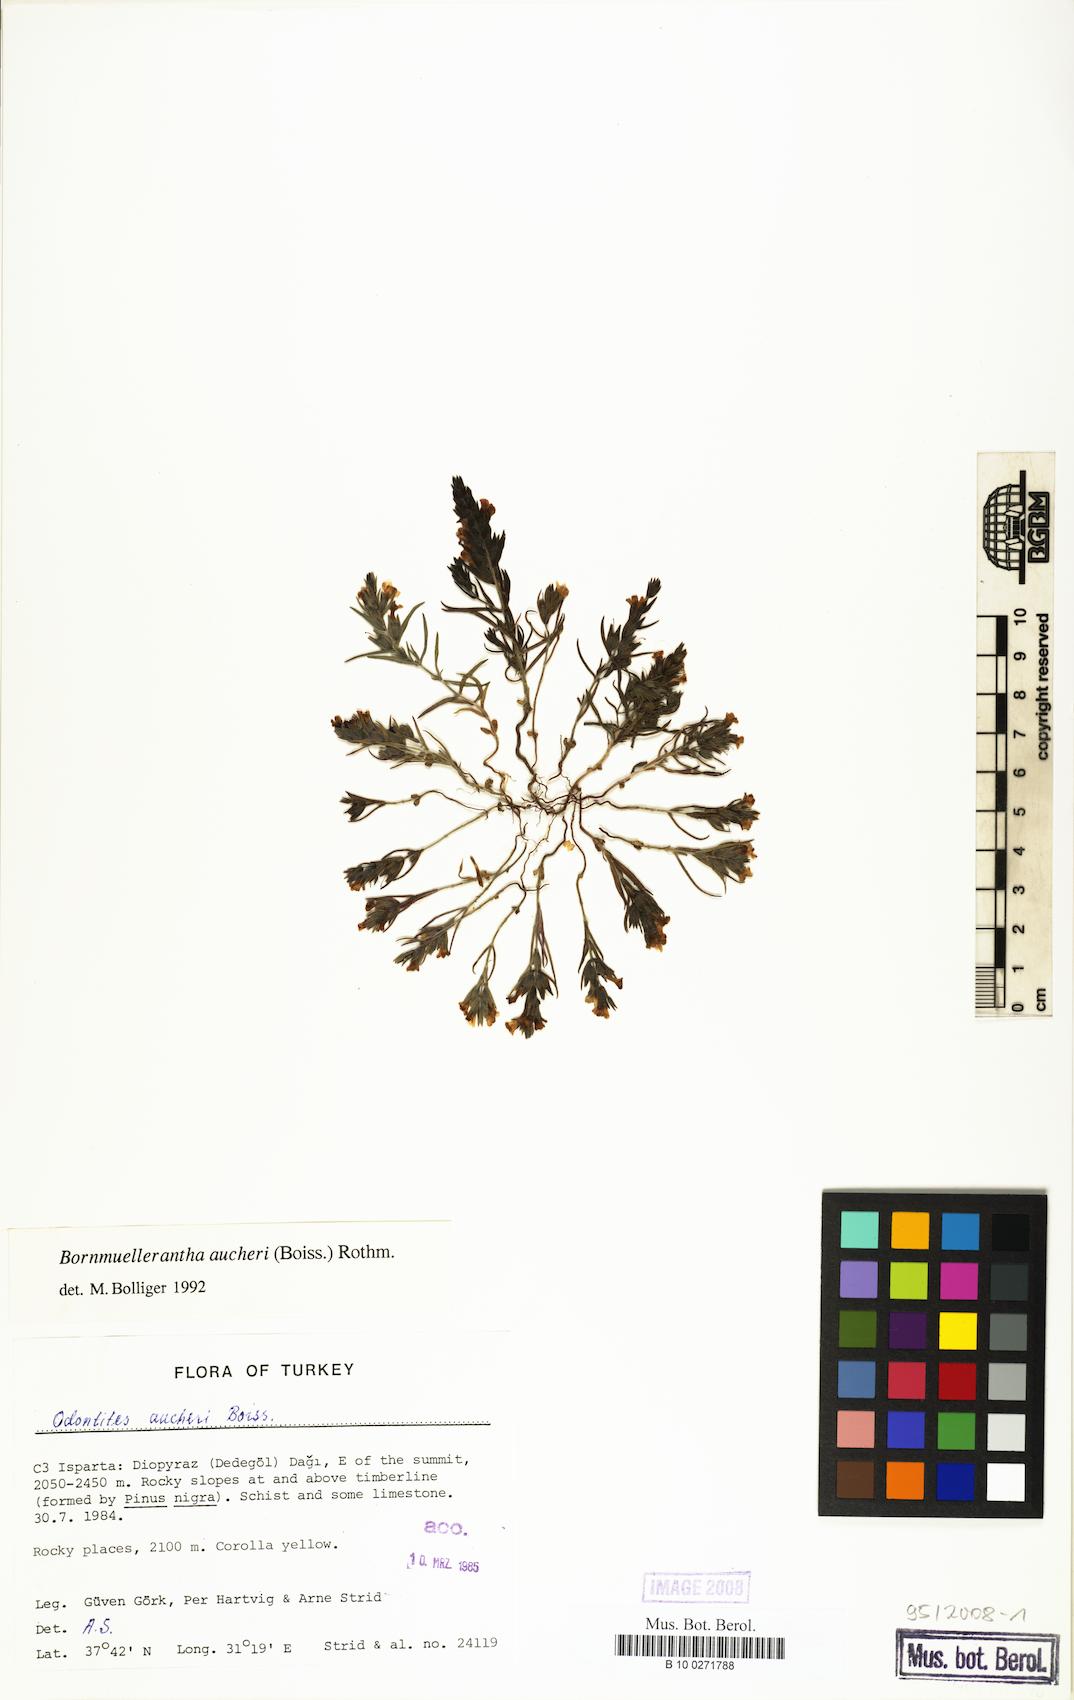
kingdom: Plantae
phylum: Tracheophyta
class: Magnoliopsida
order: Lamiales
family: Orobanchaceae
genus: Odontites
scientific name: Odontites aucheri
